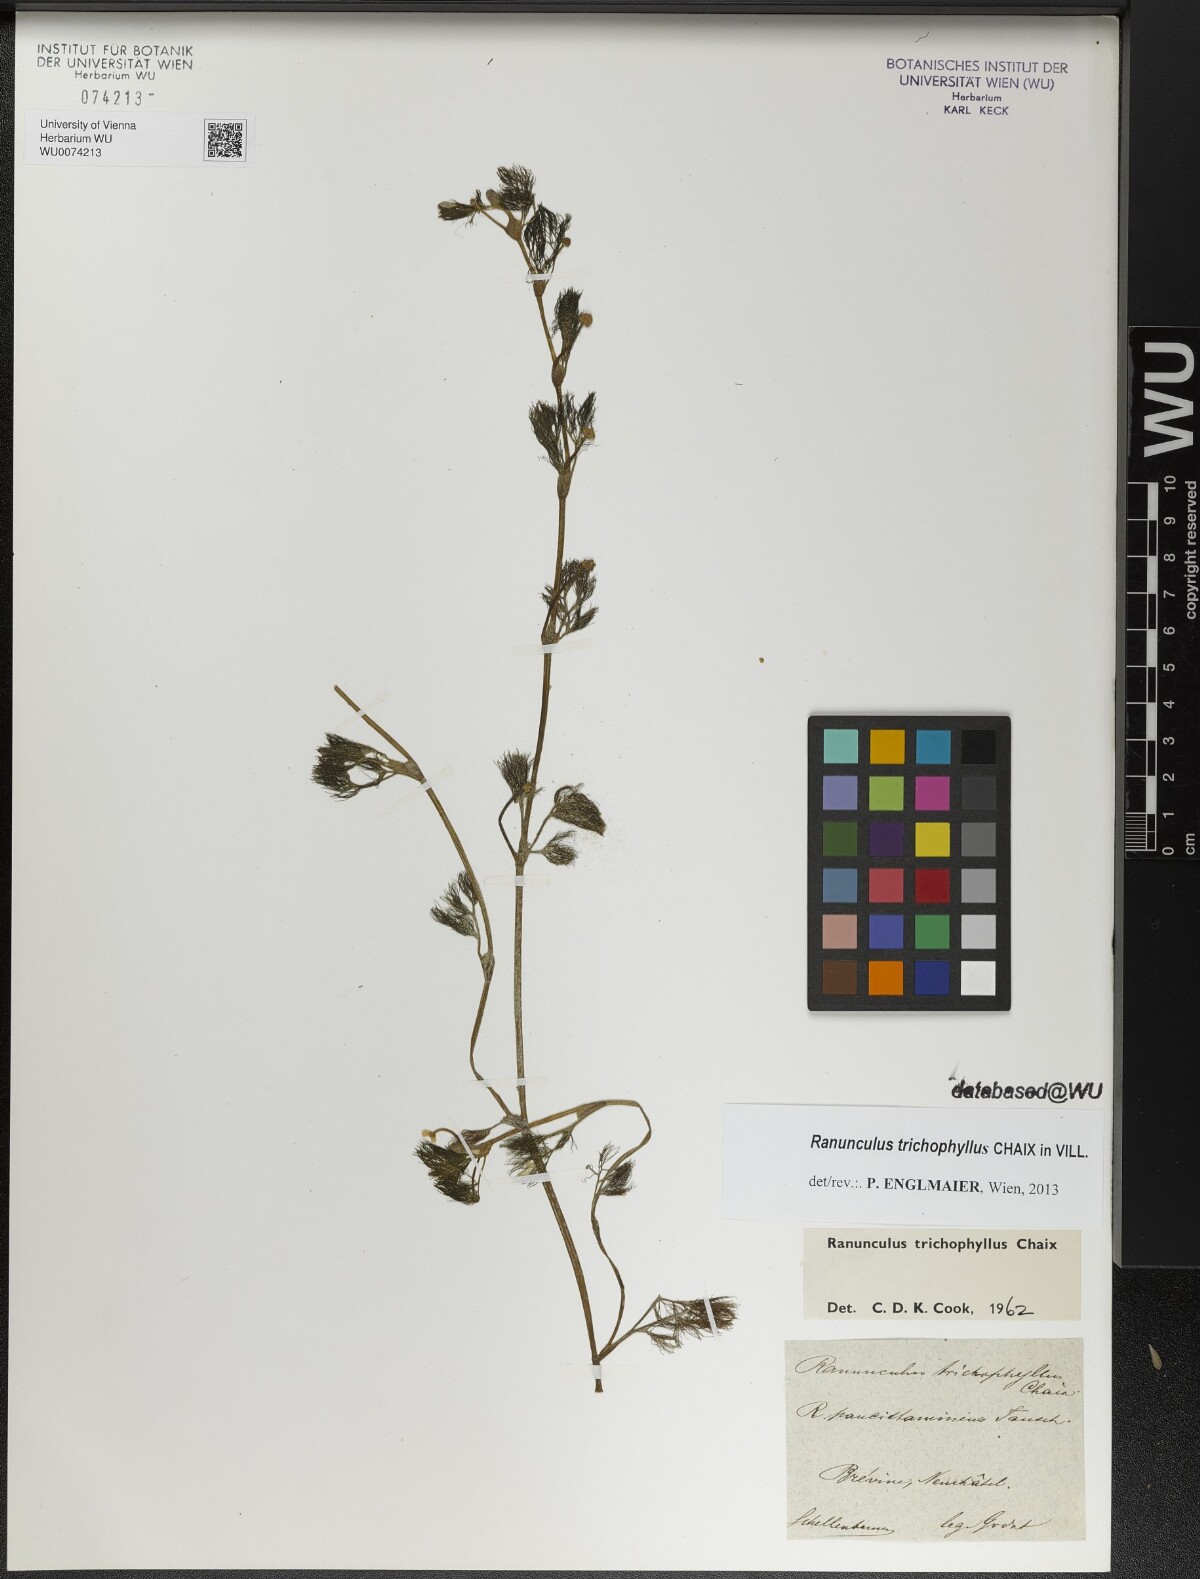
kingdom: Plantae
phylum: Tracheophyta
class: Magnoliopsida
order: Ranunculales
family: Ranunculaceae
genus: Ranunculus
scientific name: Ranunculus trichophyllus
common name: Thread-leaved water-crowfoot
